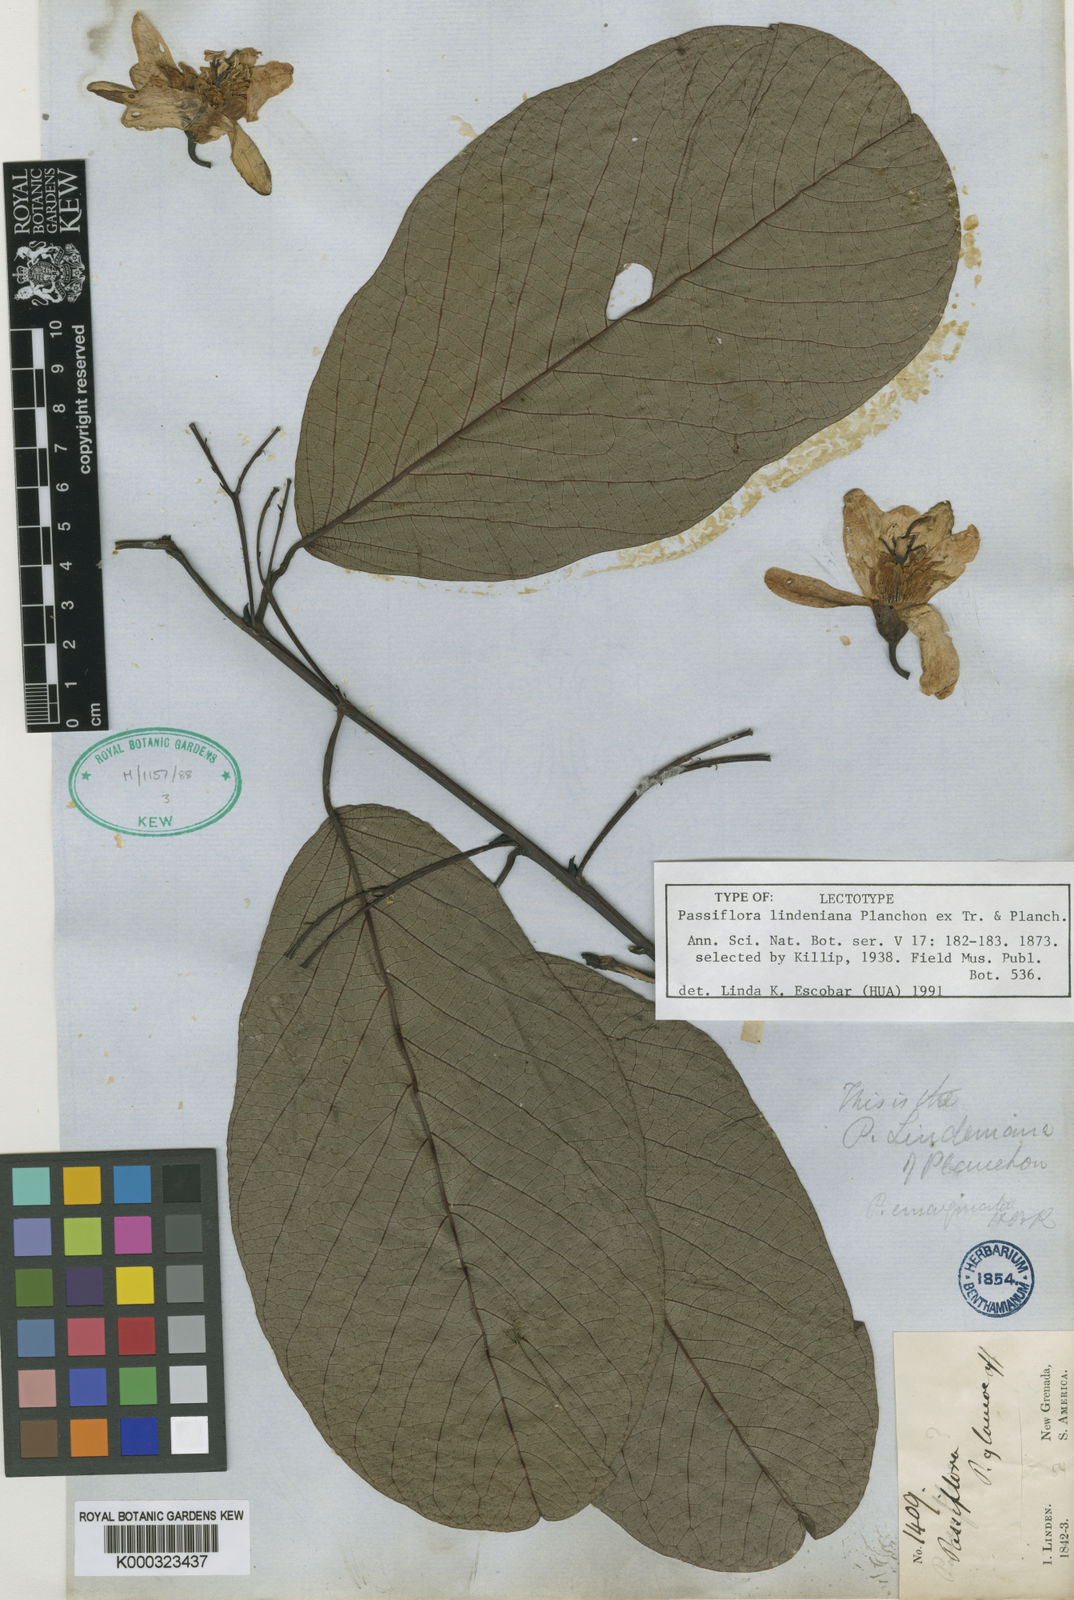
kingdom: Plantae
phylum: Tracheophyta
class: Magnoliopsida
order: Malpighiales
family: Passifloraceae
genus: Passiflora
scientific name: Passiflora lindeniana
